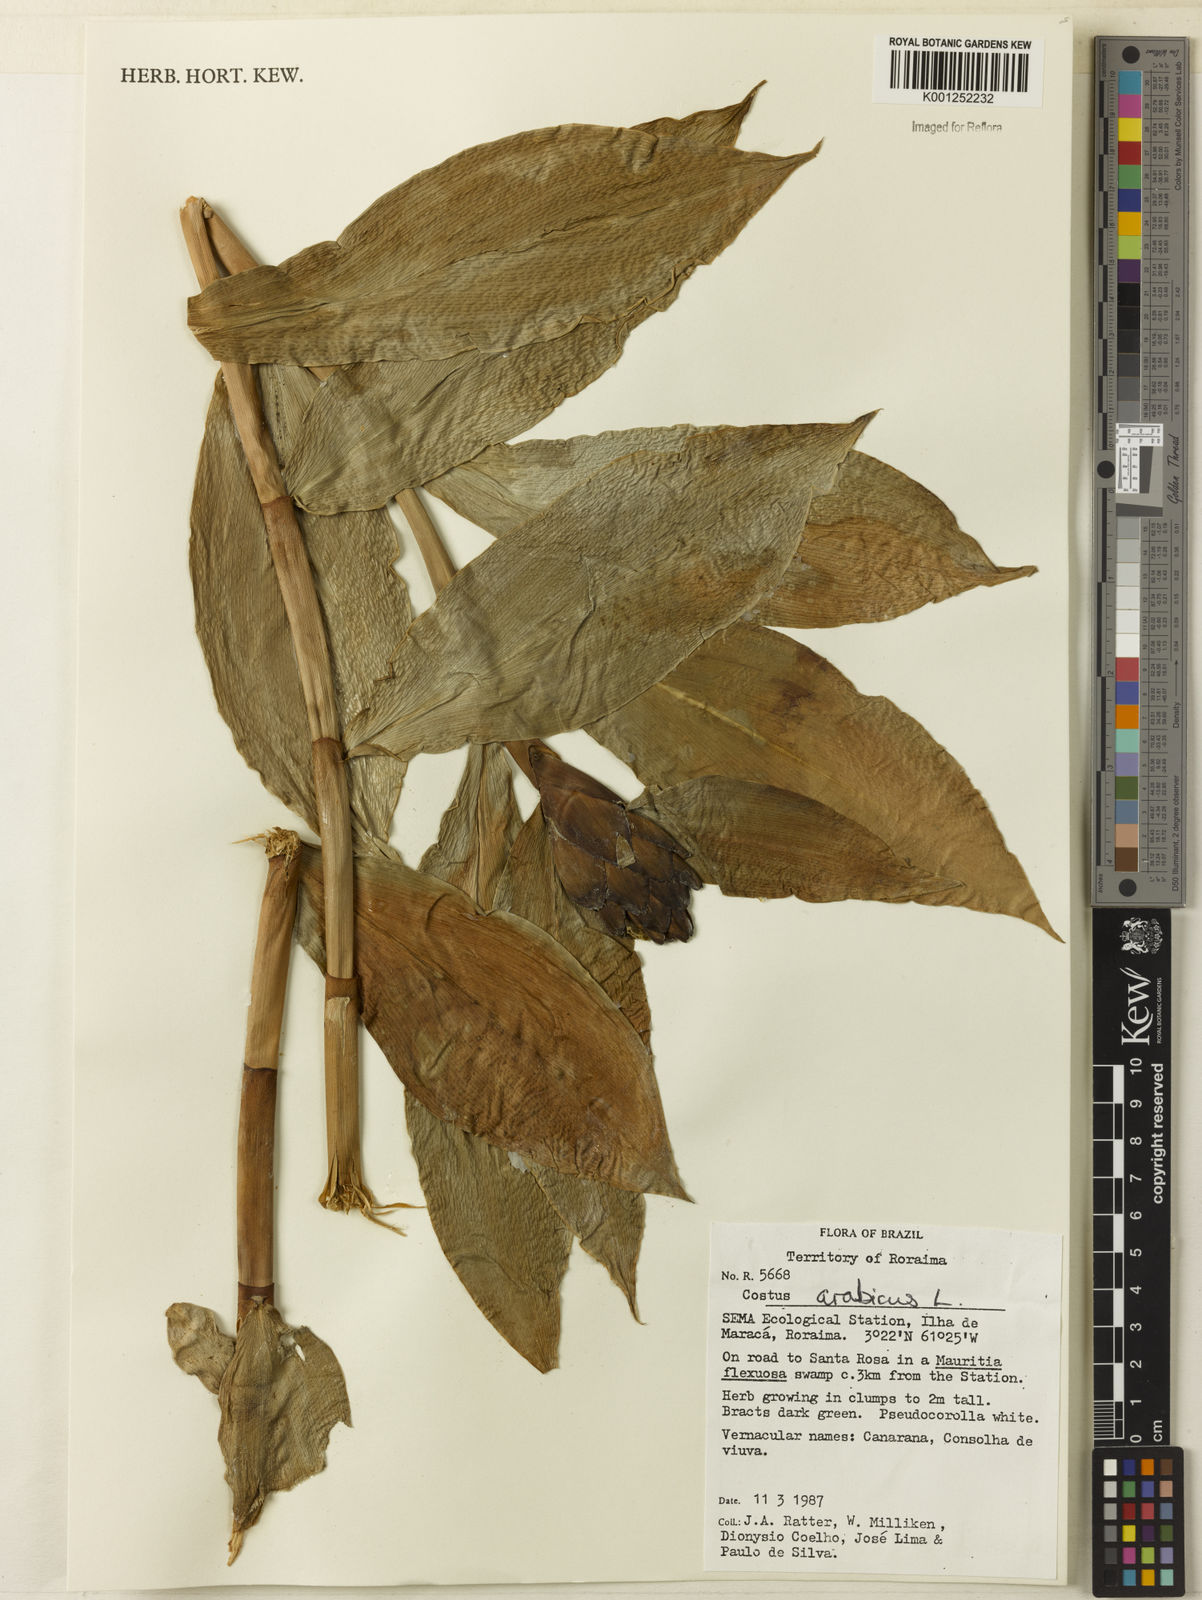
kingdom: Plantae
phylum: Tracheophyta
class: Liliopsida
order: Zingiberales
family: Costaceae
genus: Costus
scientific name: Costus arabicus
